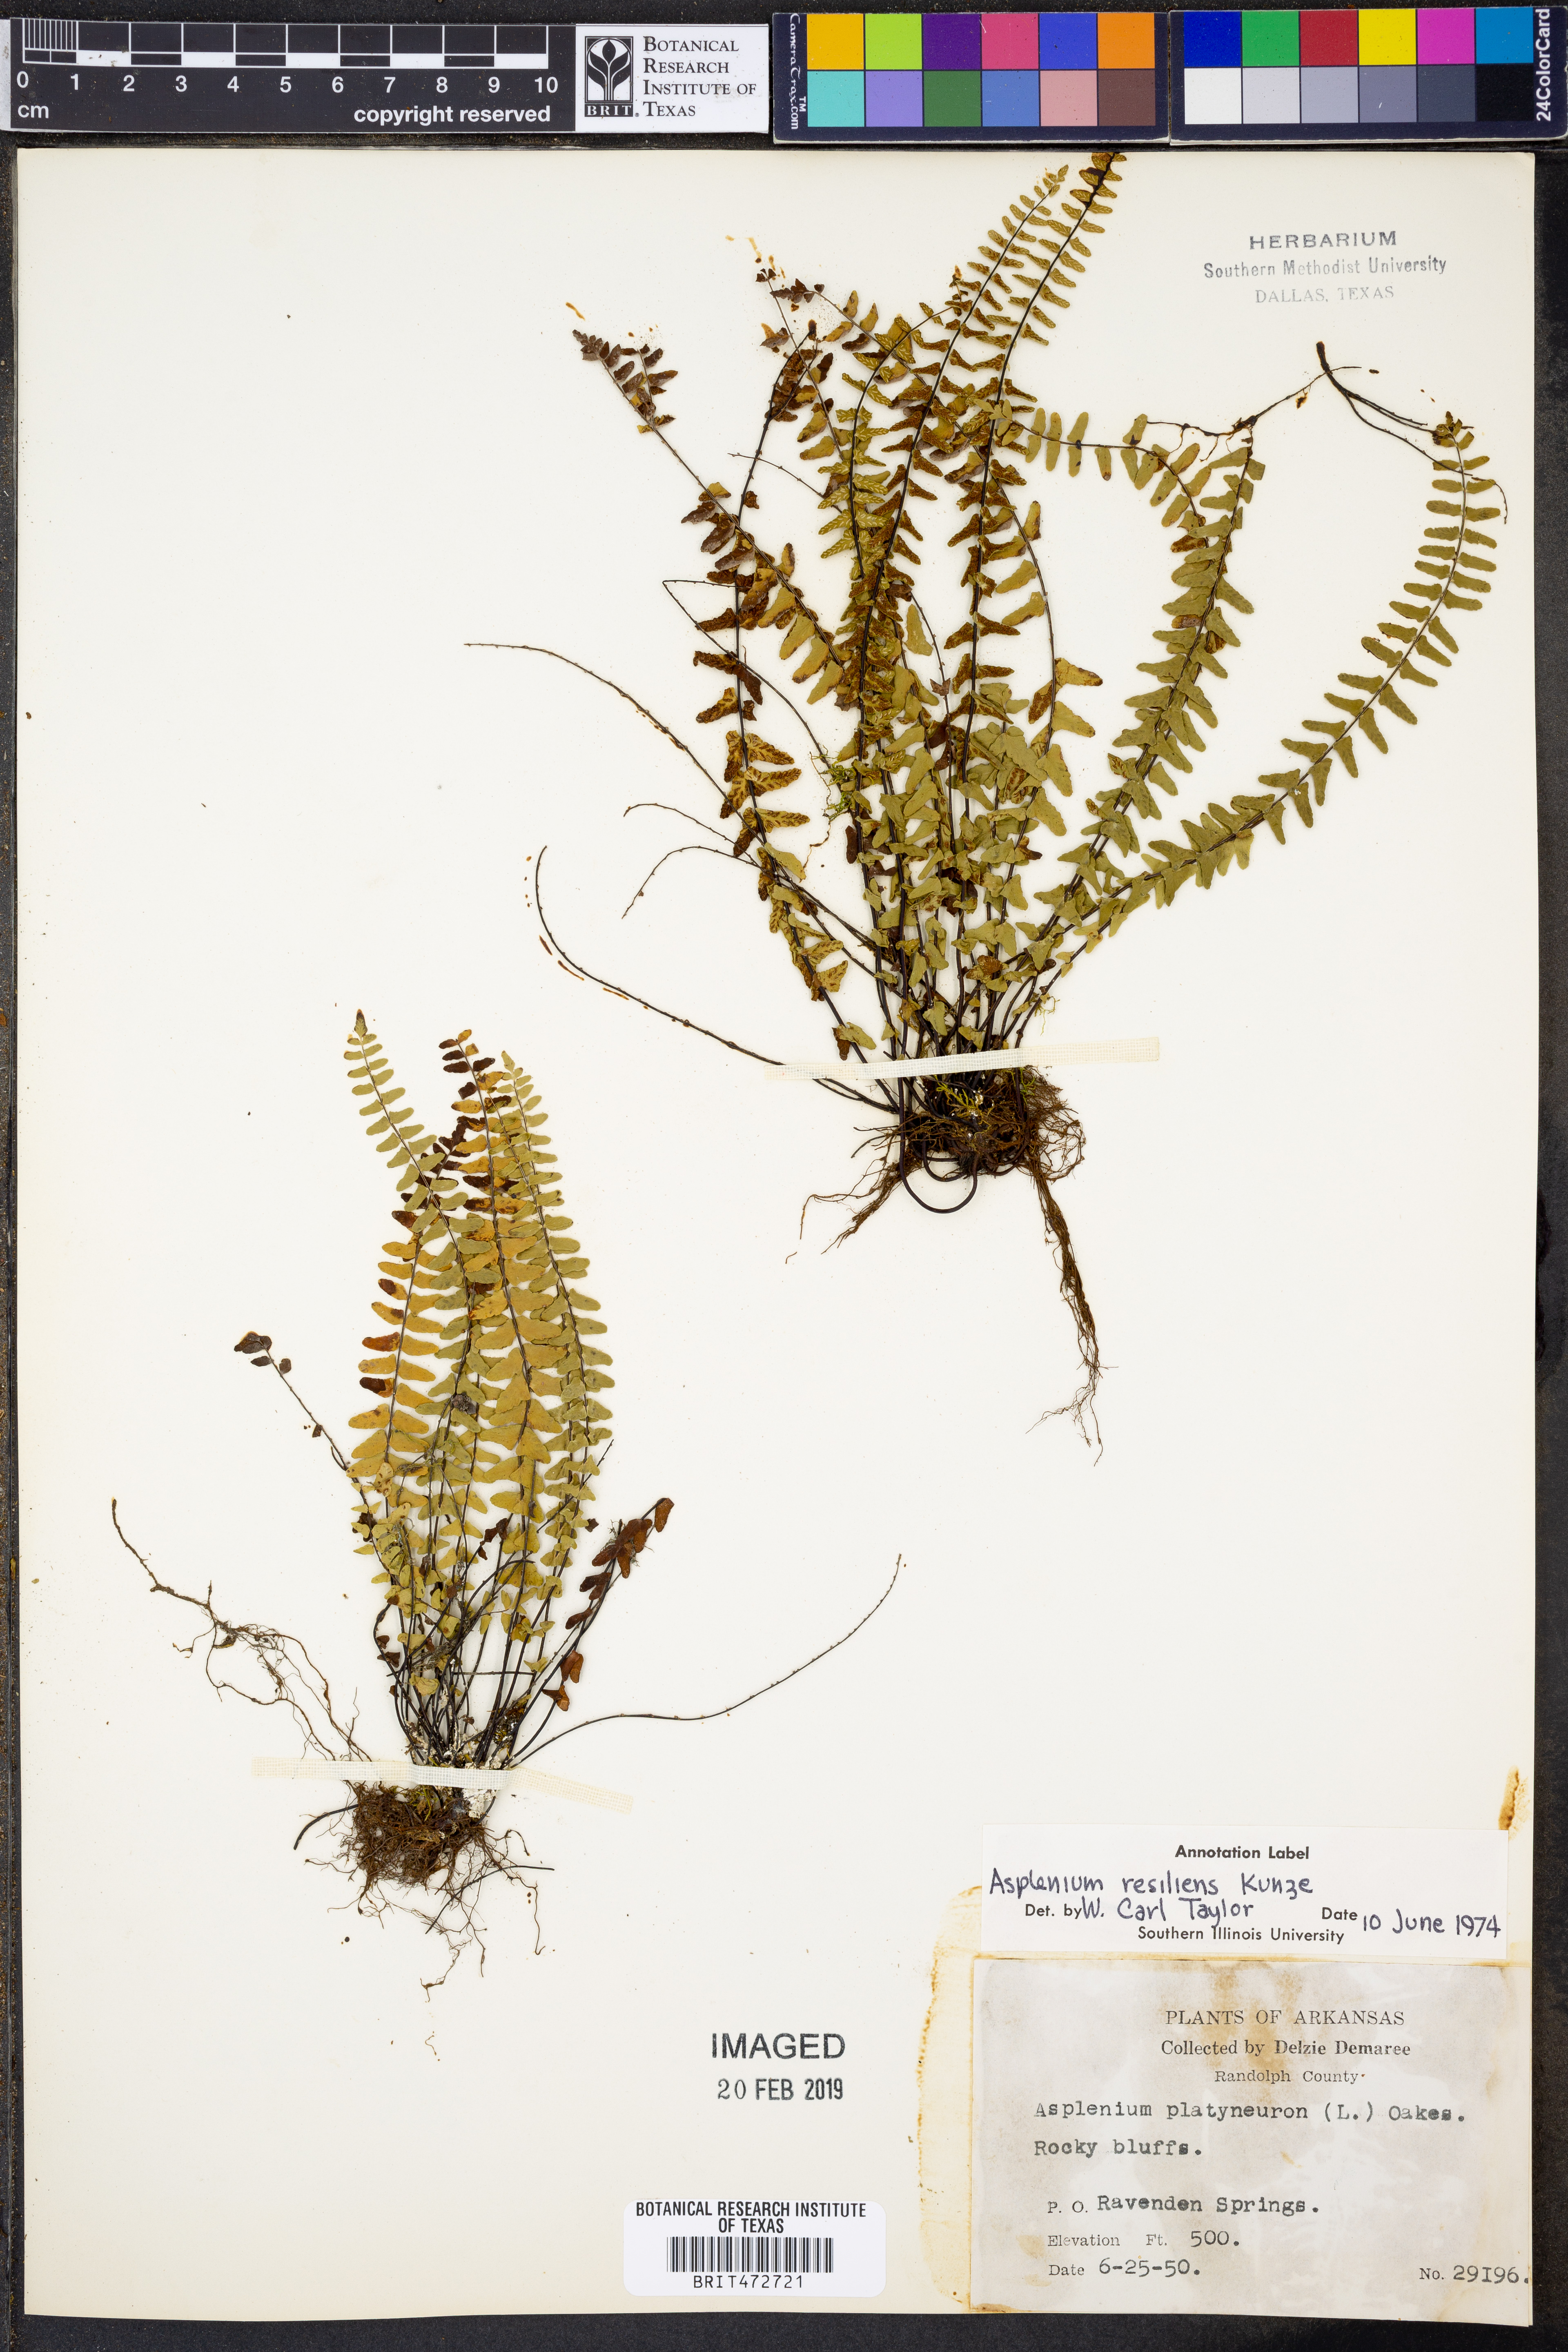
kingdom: Plantae
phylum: Tracheophyta
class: Polypodiopsida
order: Polypodiales
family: Aspleniaceae
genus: Asplenium
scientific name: Asplenium resiliens
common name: Blackstem spleenwort
